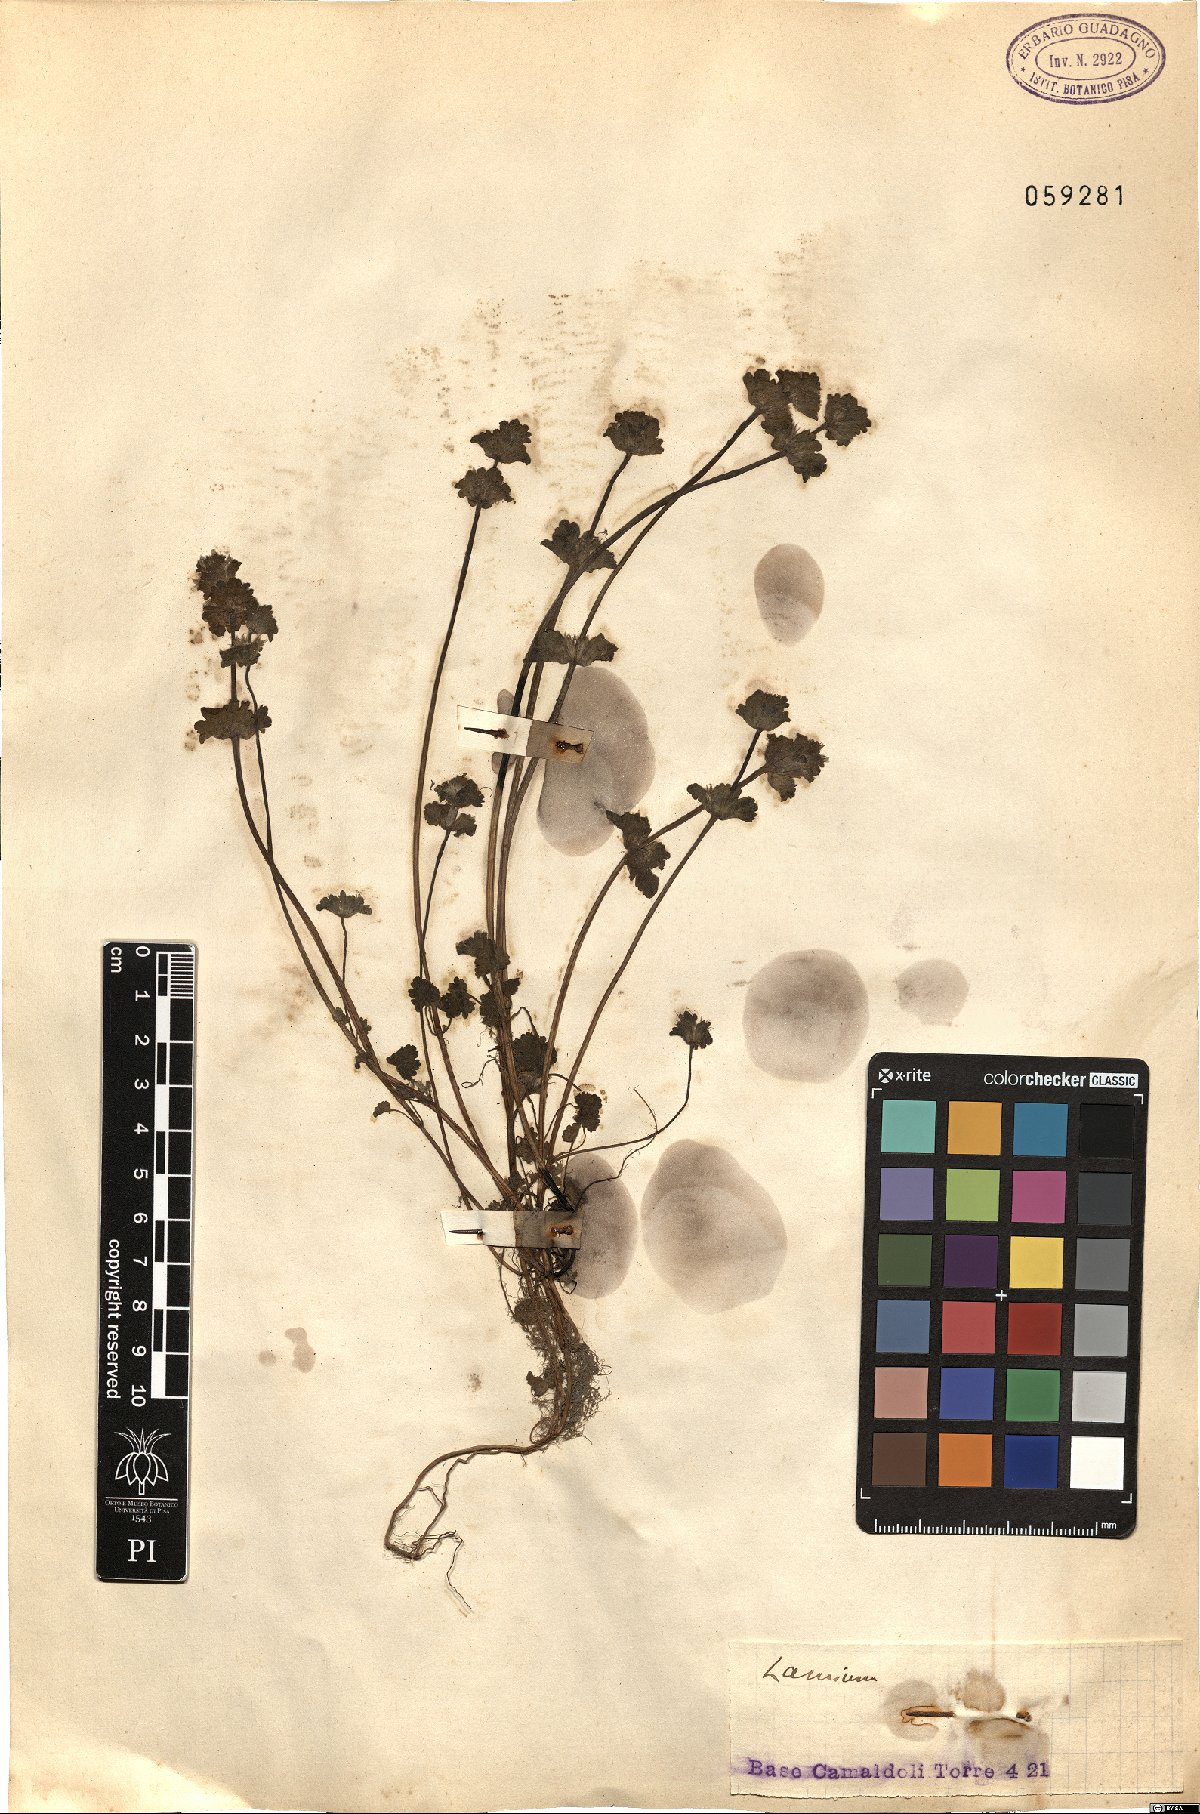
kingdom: Plantae
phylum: Tracheophyta
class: Magnoliopsida
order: Lamiales
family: Lamiaceae
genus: Lamium
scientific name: Lamium
